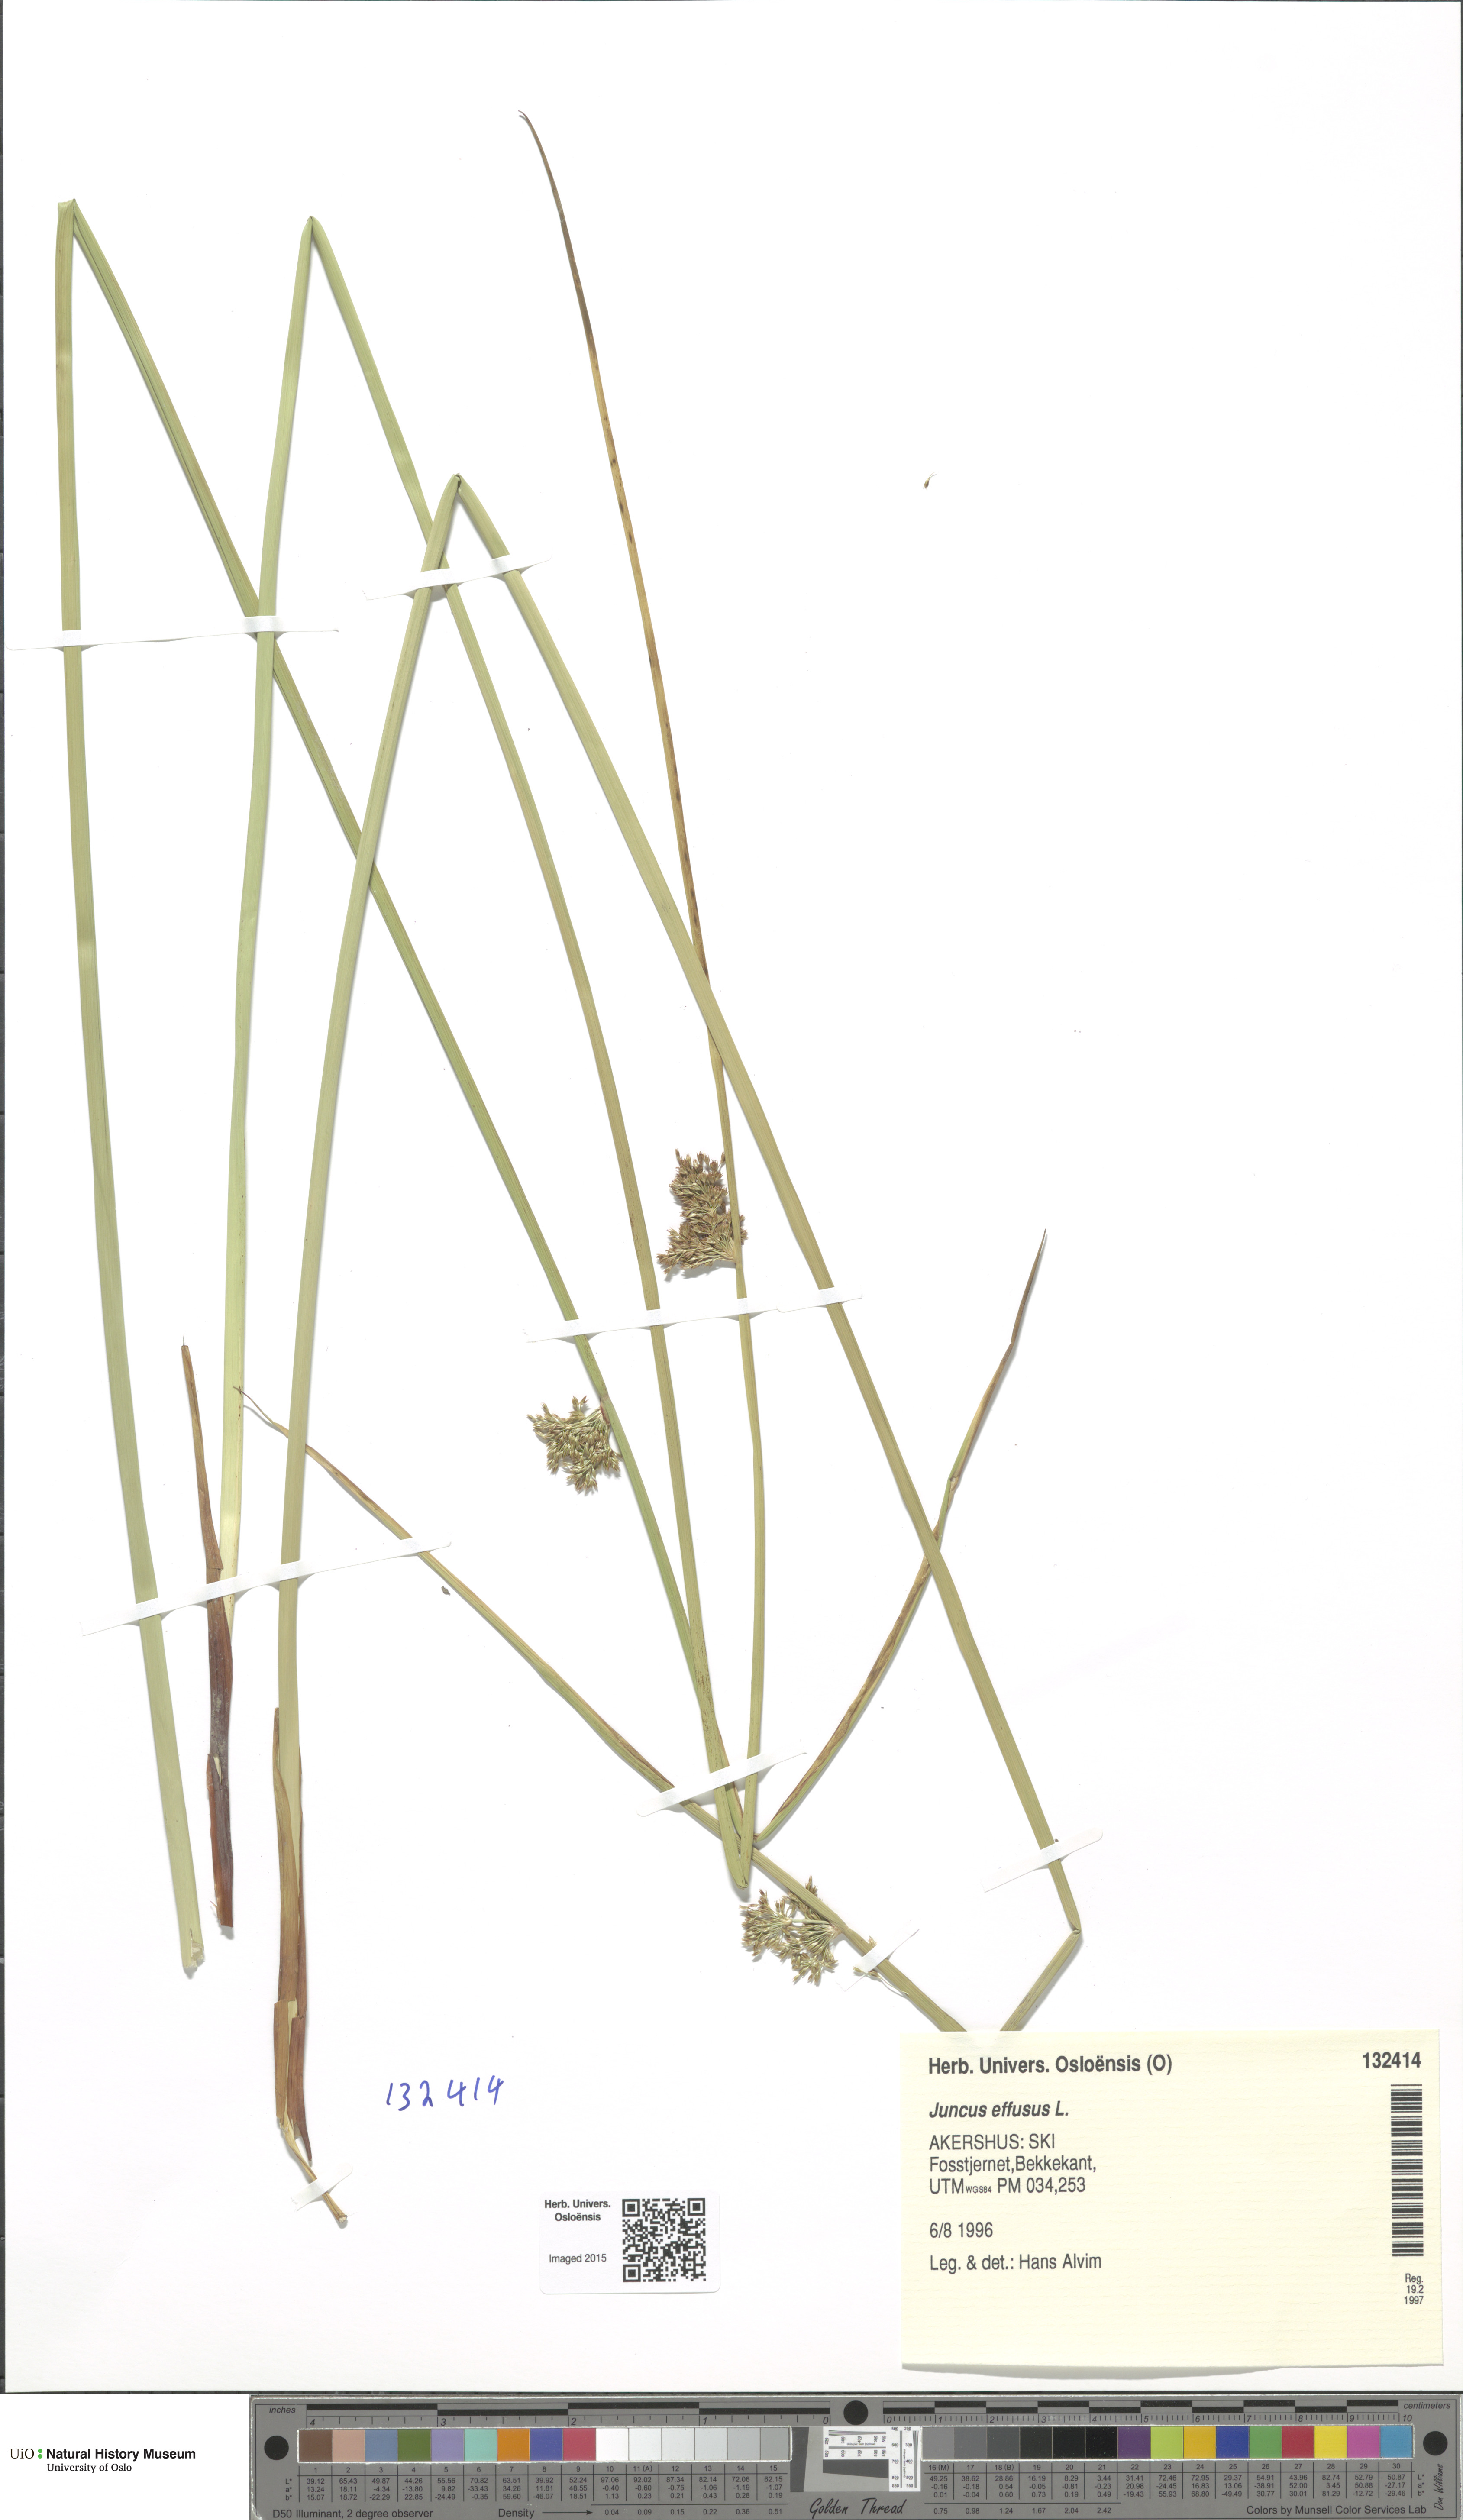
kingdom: Plantae
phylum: Tracheophyta
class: Liliopsida
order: Poales
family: Juncaceae
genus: Juncus
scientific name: Juncus effusus
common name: Soft rush
